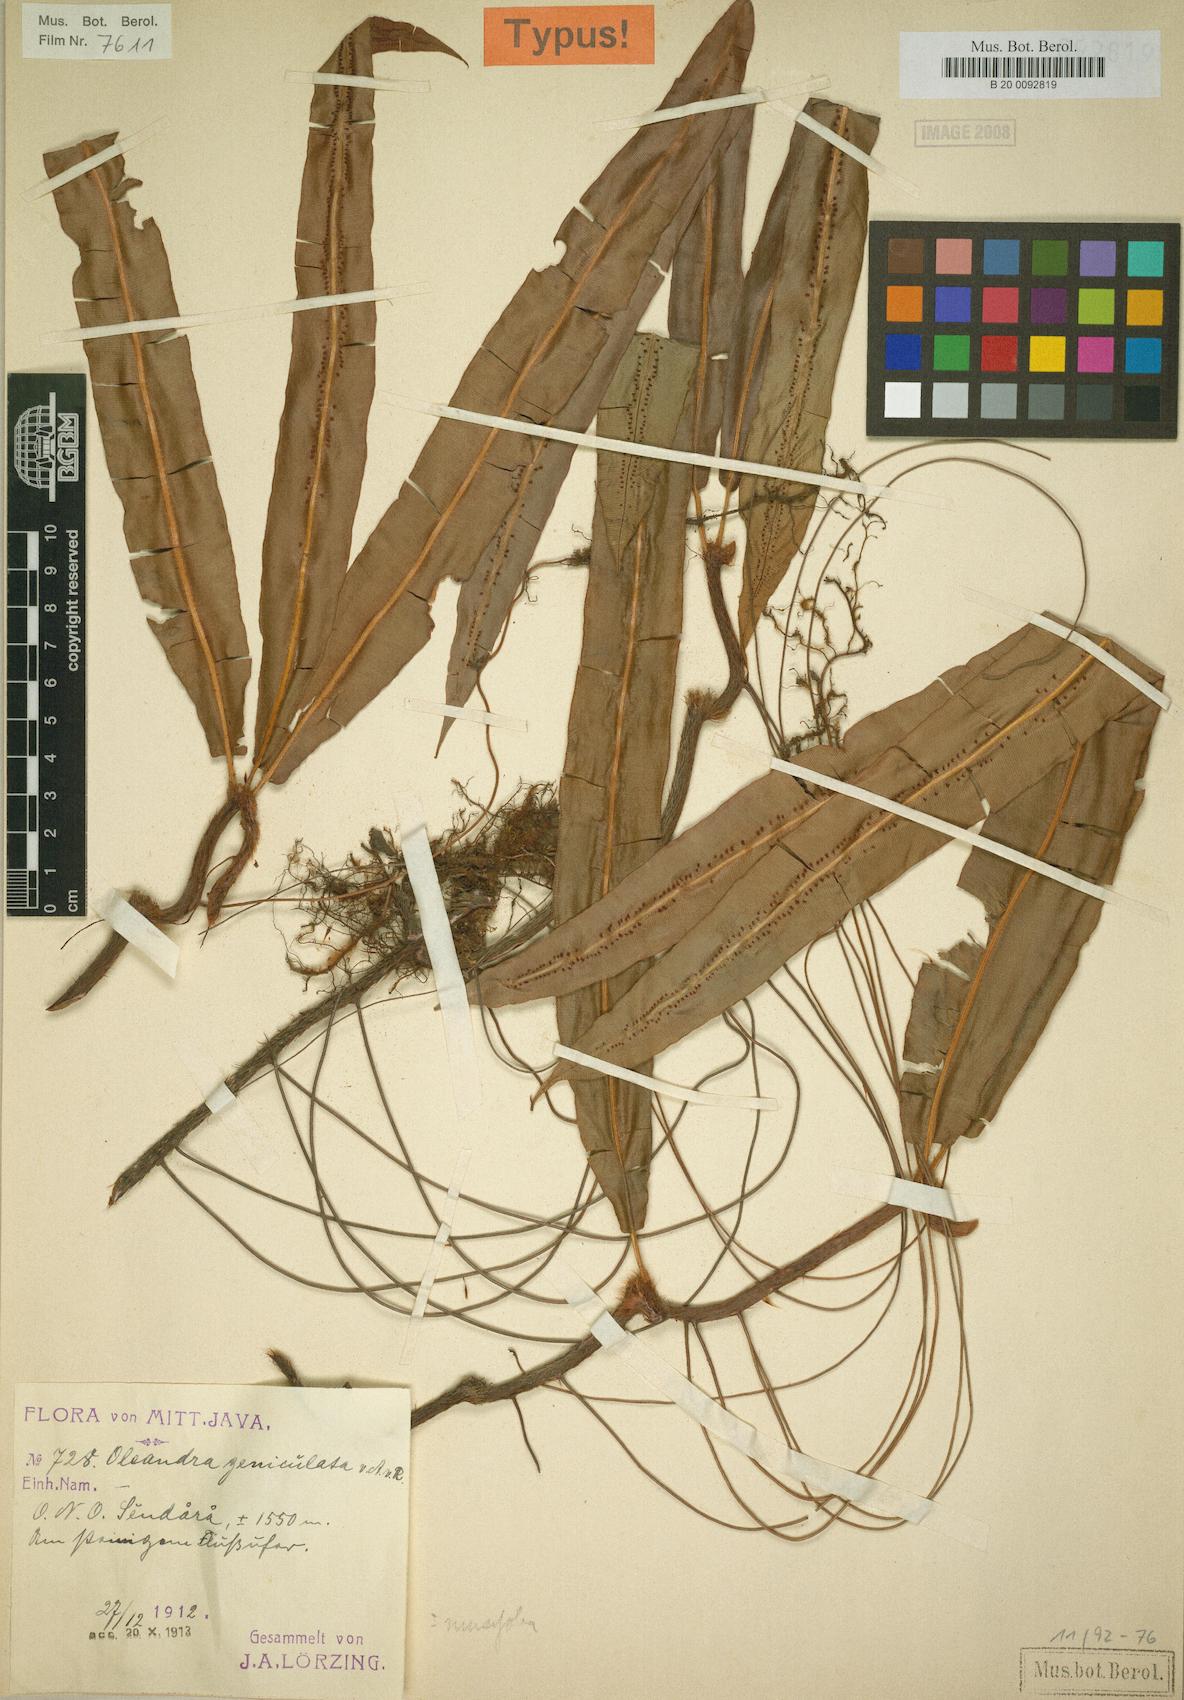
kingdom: Plantae
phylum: Tracheophyta
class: Polypodiopsida
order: Polypodiales
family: Oleandraceae
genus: Oleandra
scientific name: Oleandra musifolia
